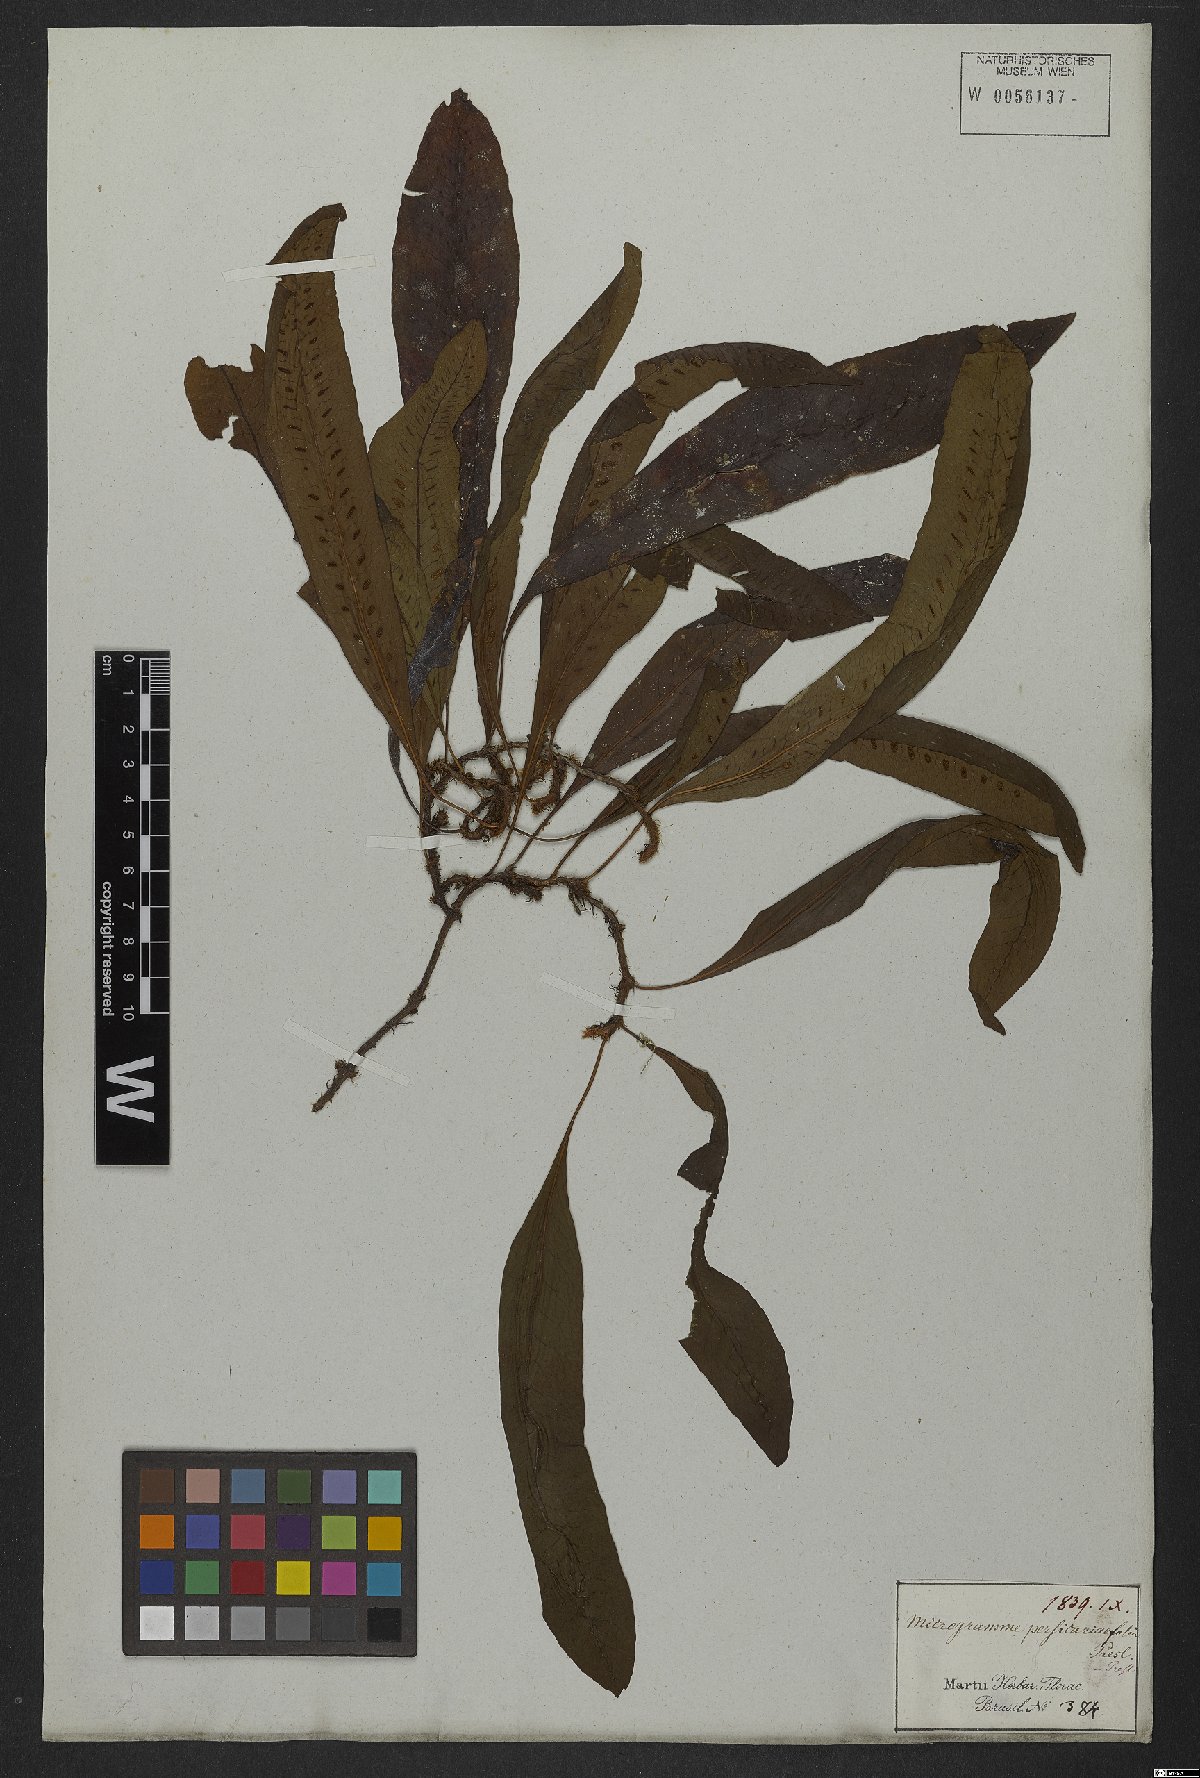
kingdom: Plantae
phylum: Tracheophyta
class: Polypodiopsida
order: Polypodiales
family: Polypodiaceae
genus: Microgramma
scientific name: Microgramma persicariifolia
